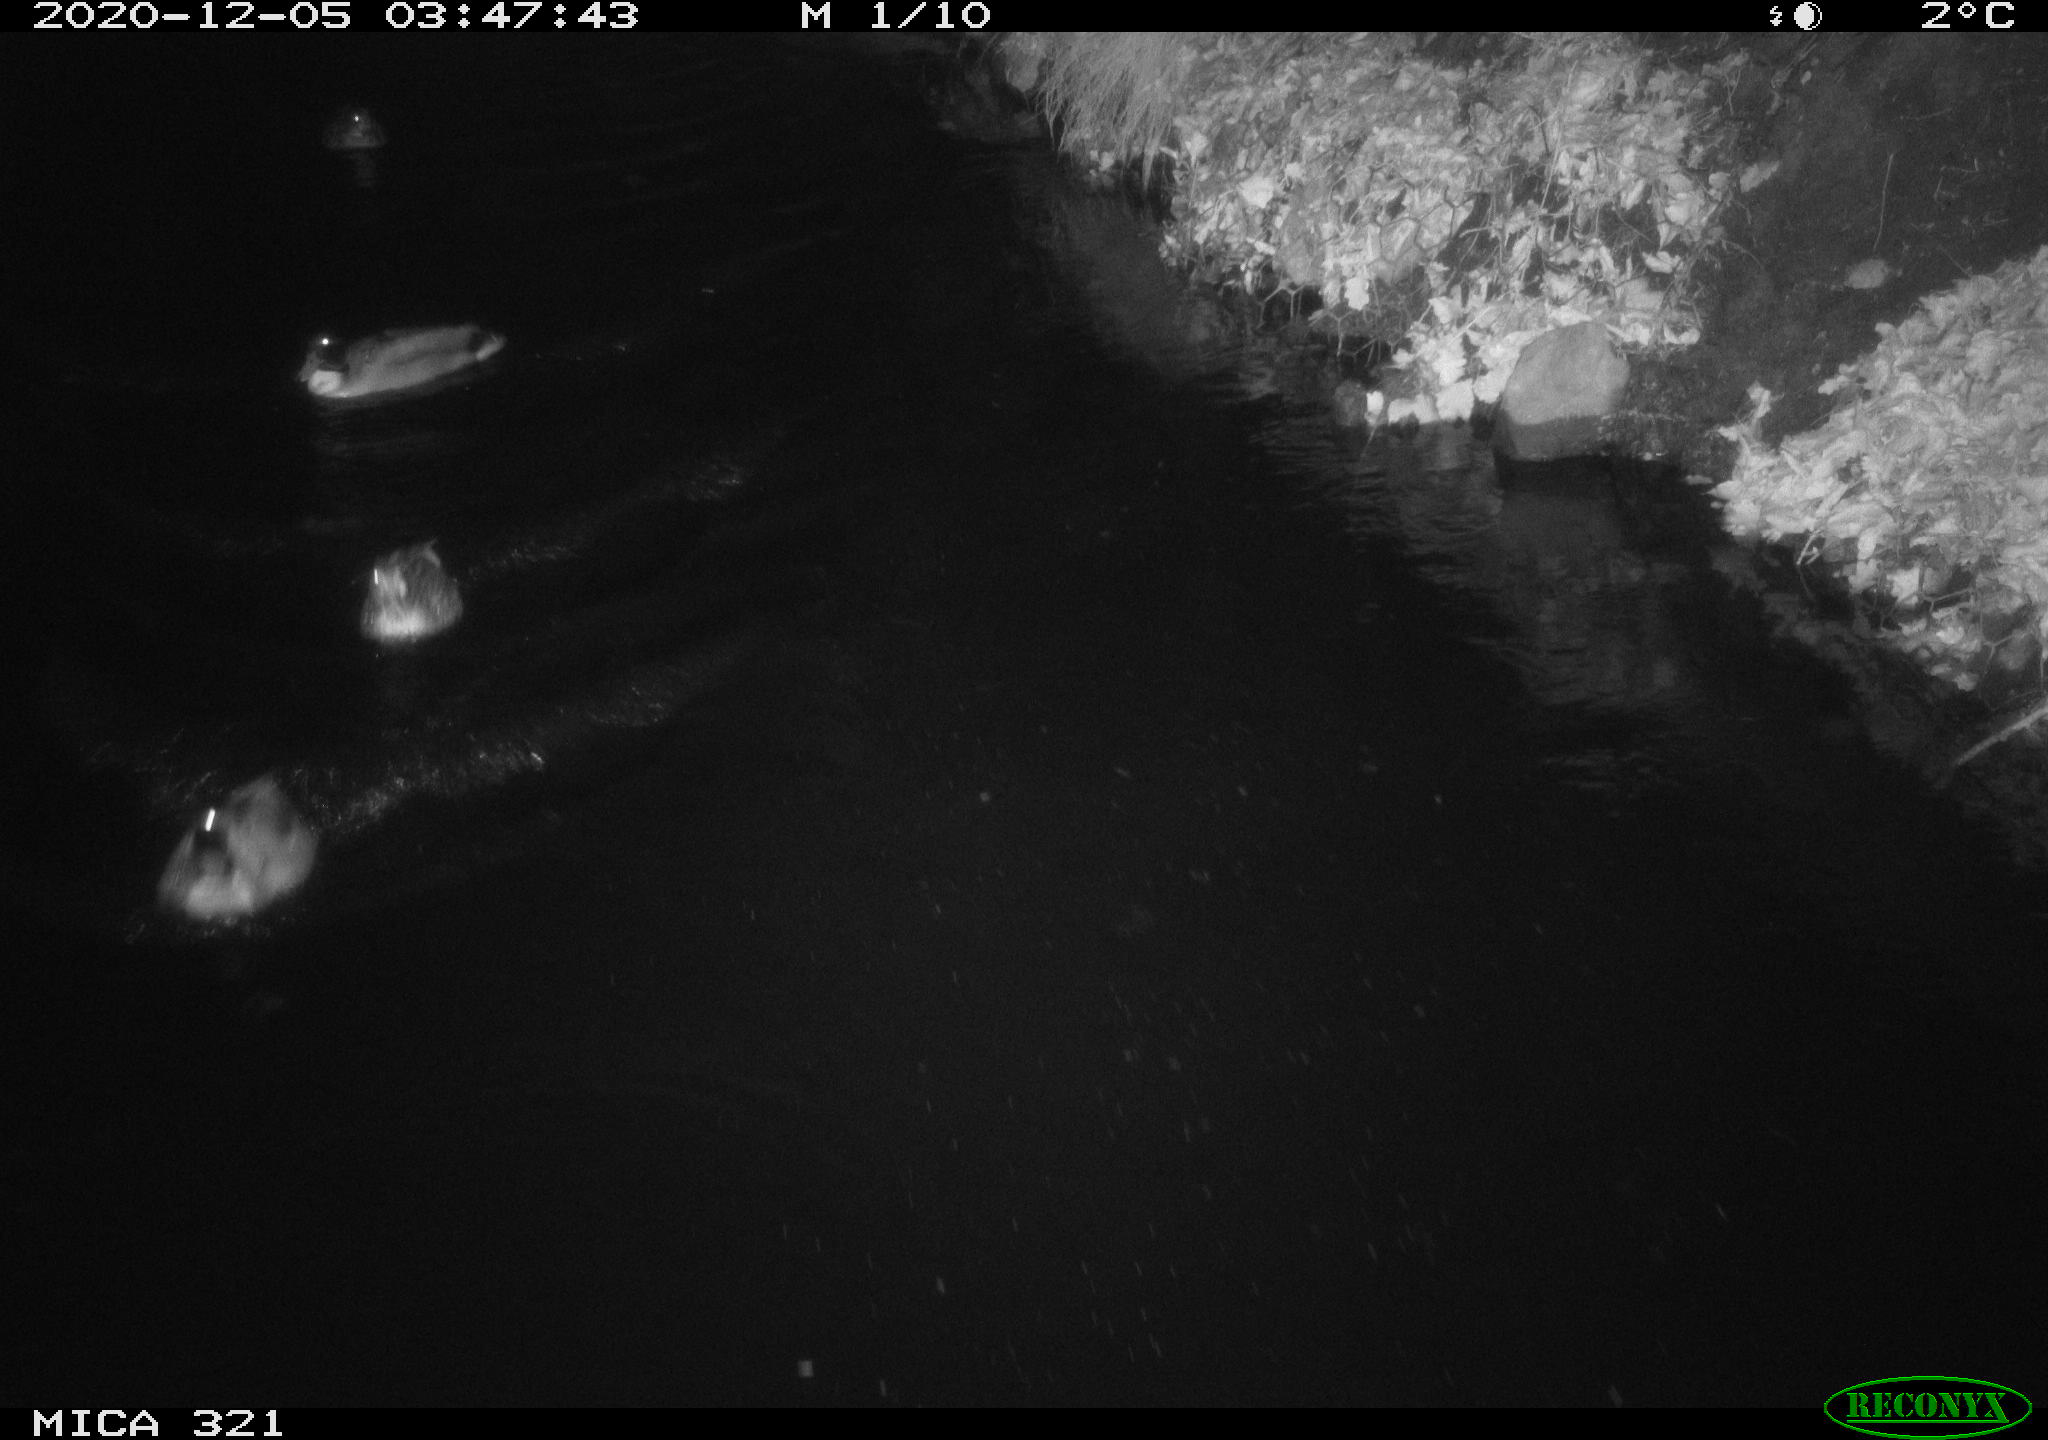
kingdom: Animalia
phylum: Chordata
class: Aves
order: Anseriformes
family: Anatidae
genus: Anas
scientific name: Anas platyrhynchos
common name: Mallard
